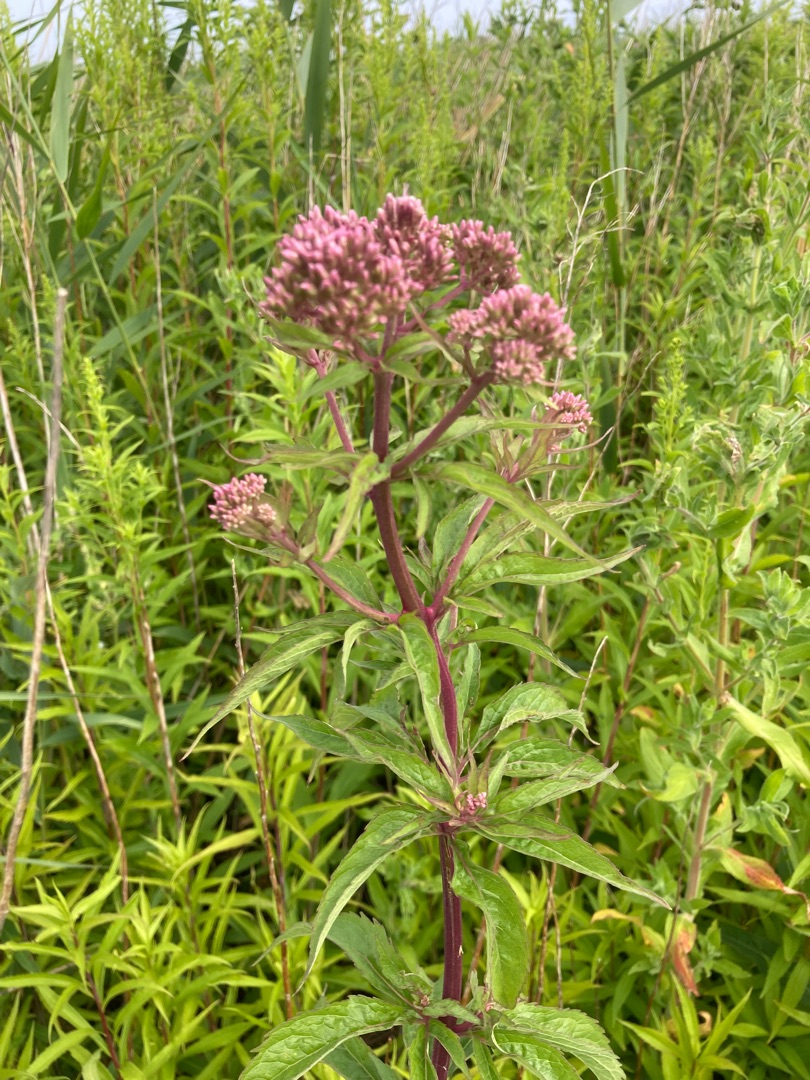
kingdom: Plantae
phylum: Tracheophyta
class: Magnoliopsida
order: Asterales
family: Asteraceae
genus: Eupatorium
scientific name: Eupatorium cannabinum
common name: Hjortetrøst
